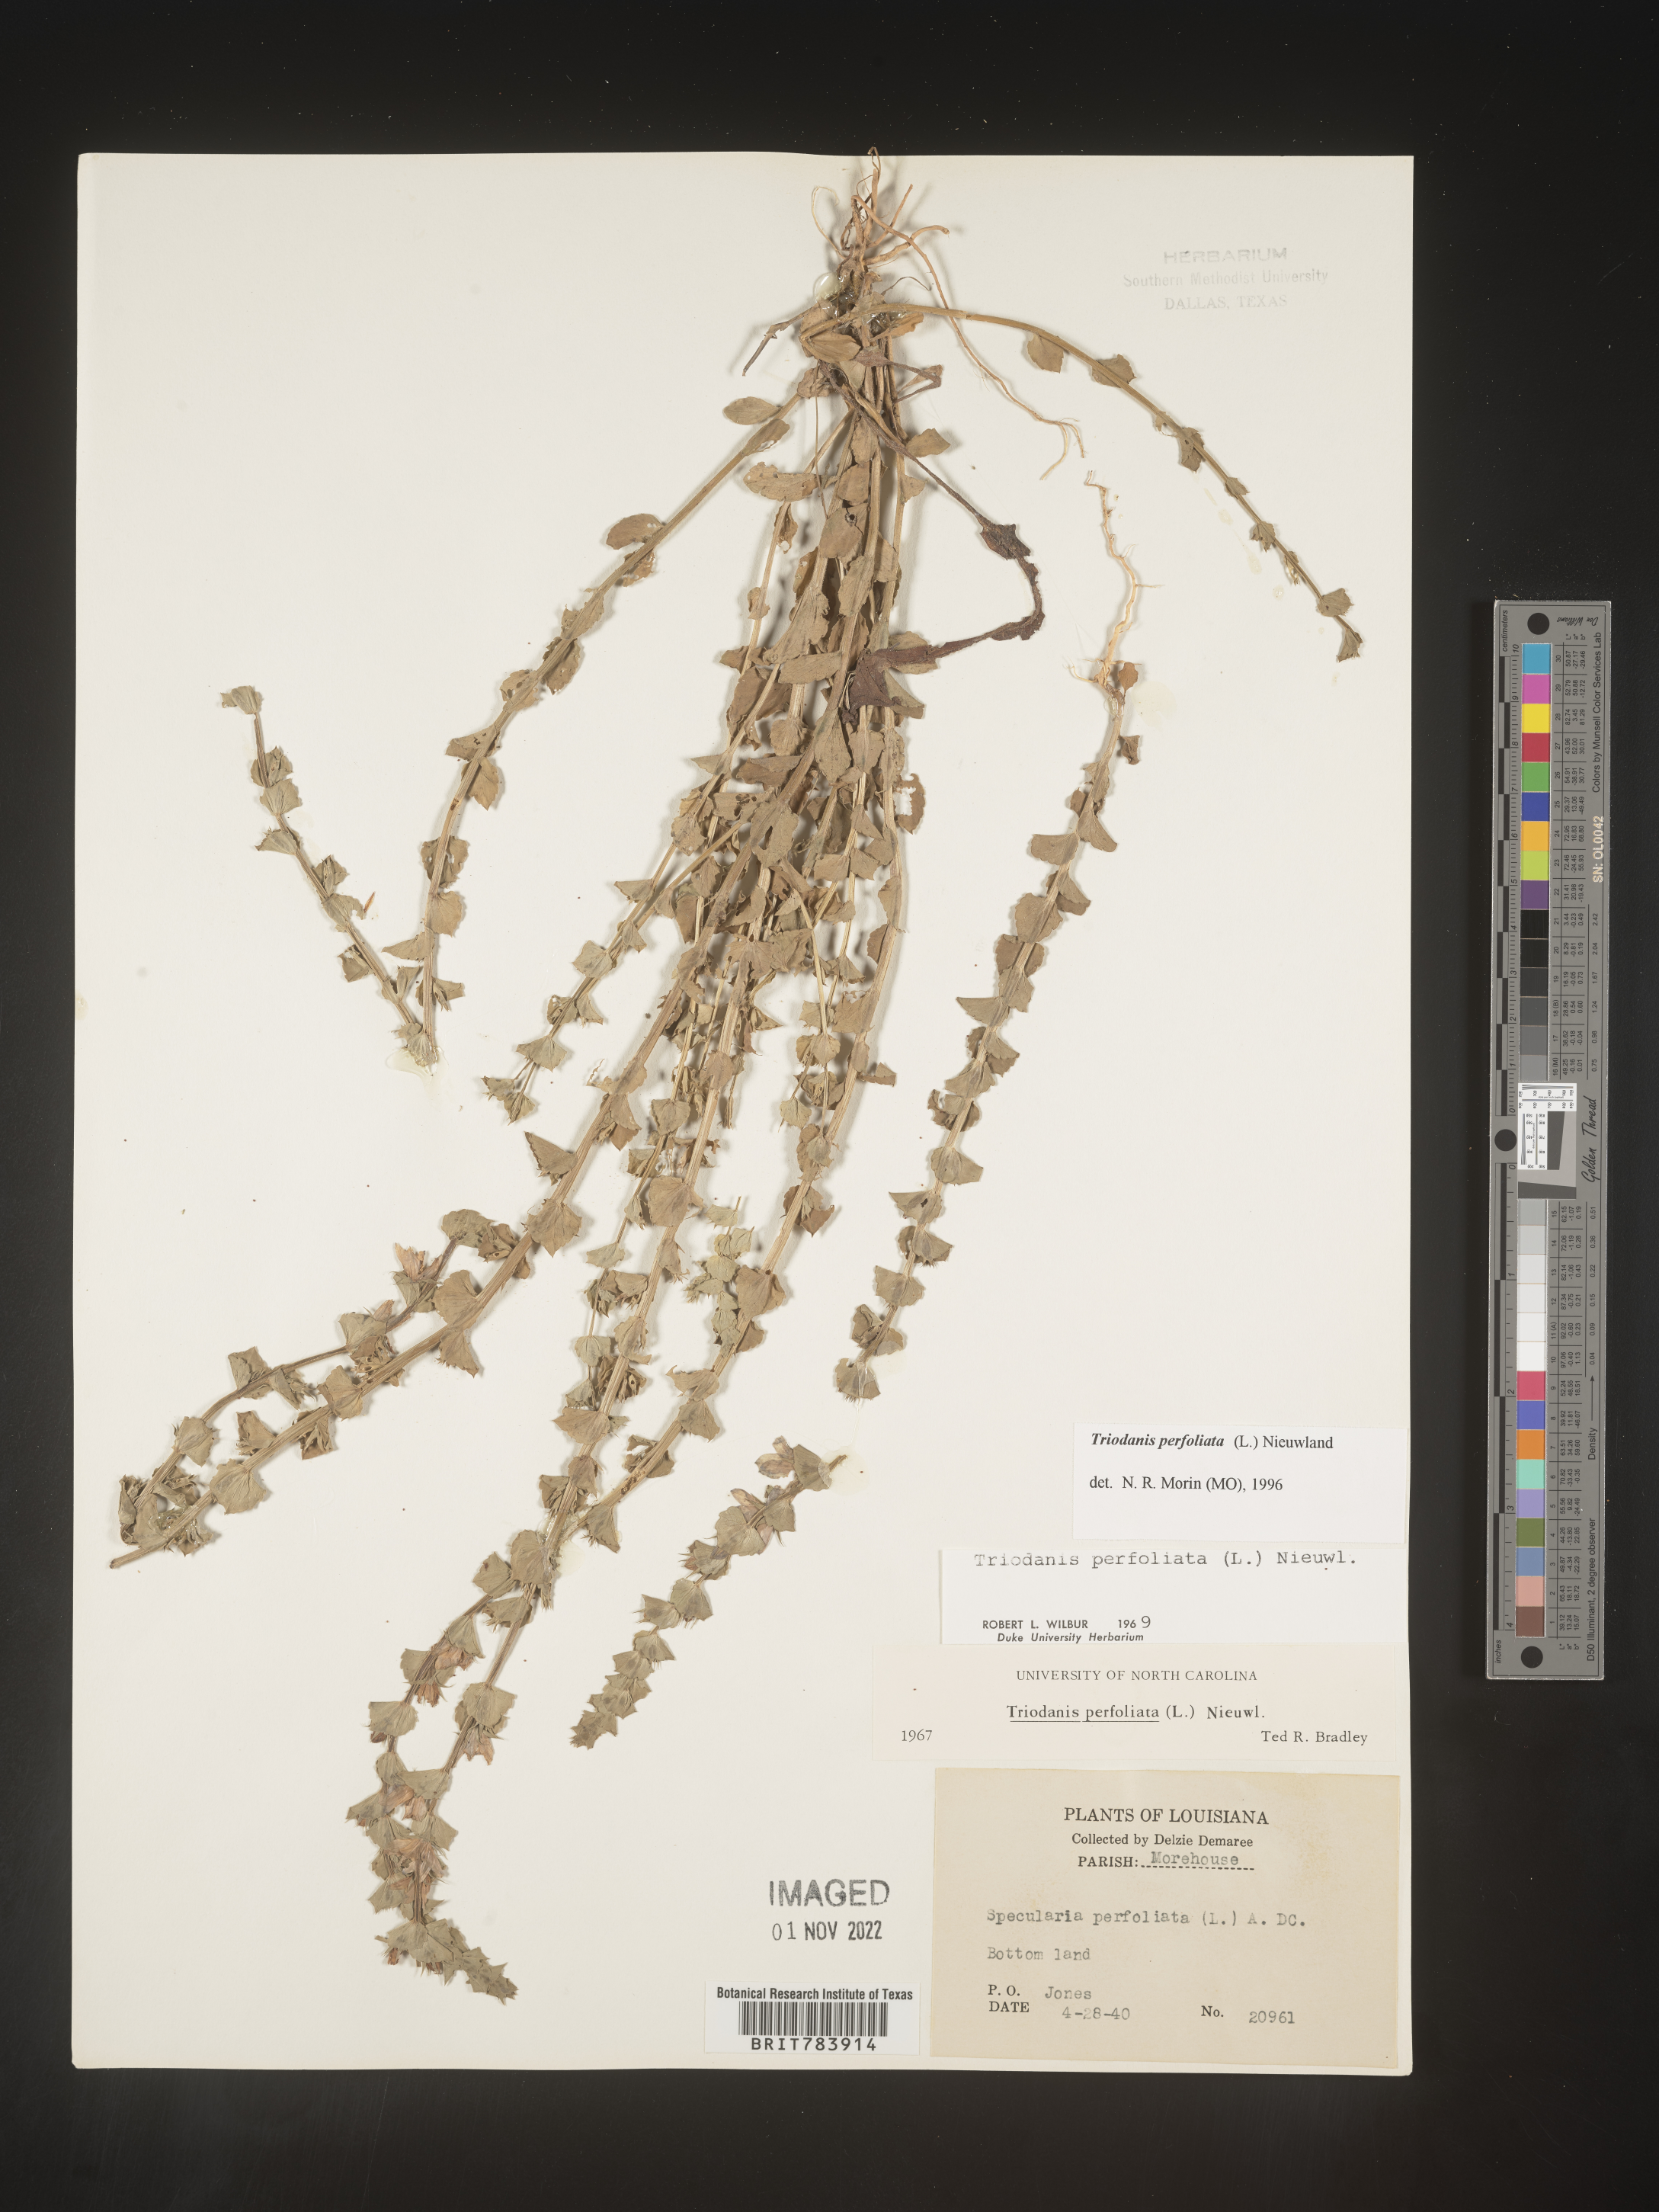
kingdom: Plantae
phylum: Tracheophyta
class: Magnoliopsida
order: Asterales
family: Campanulaceae
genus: Triodanis
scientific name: Triodanis perfoliata
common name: Clasping venus' looking-glass
